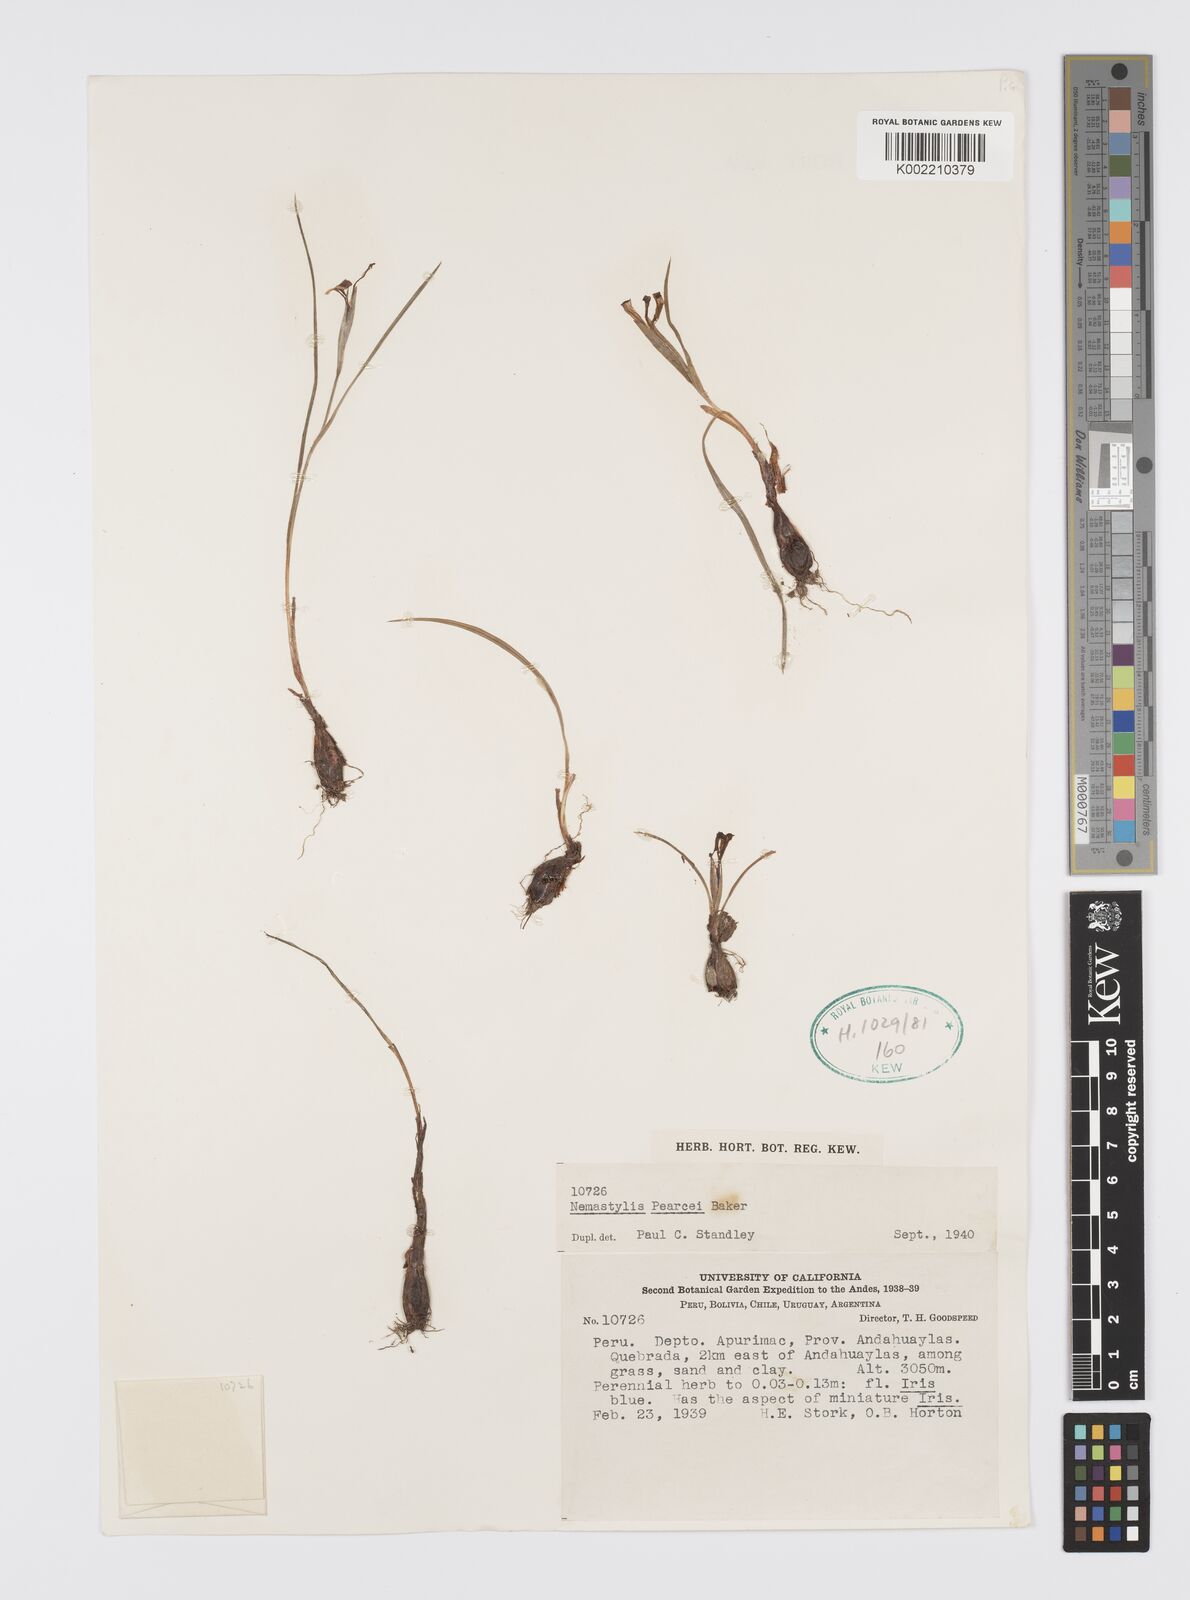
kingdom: Plantae
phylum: Tracheophyta
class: Liliopsida
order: Asparagales
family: Iridaceae
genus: Tigridia
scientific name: Tigridia pearcei
